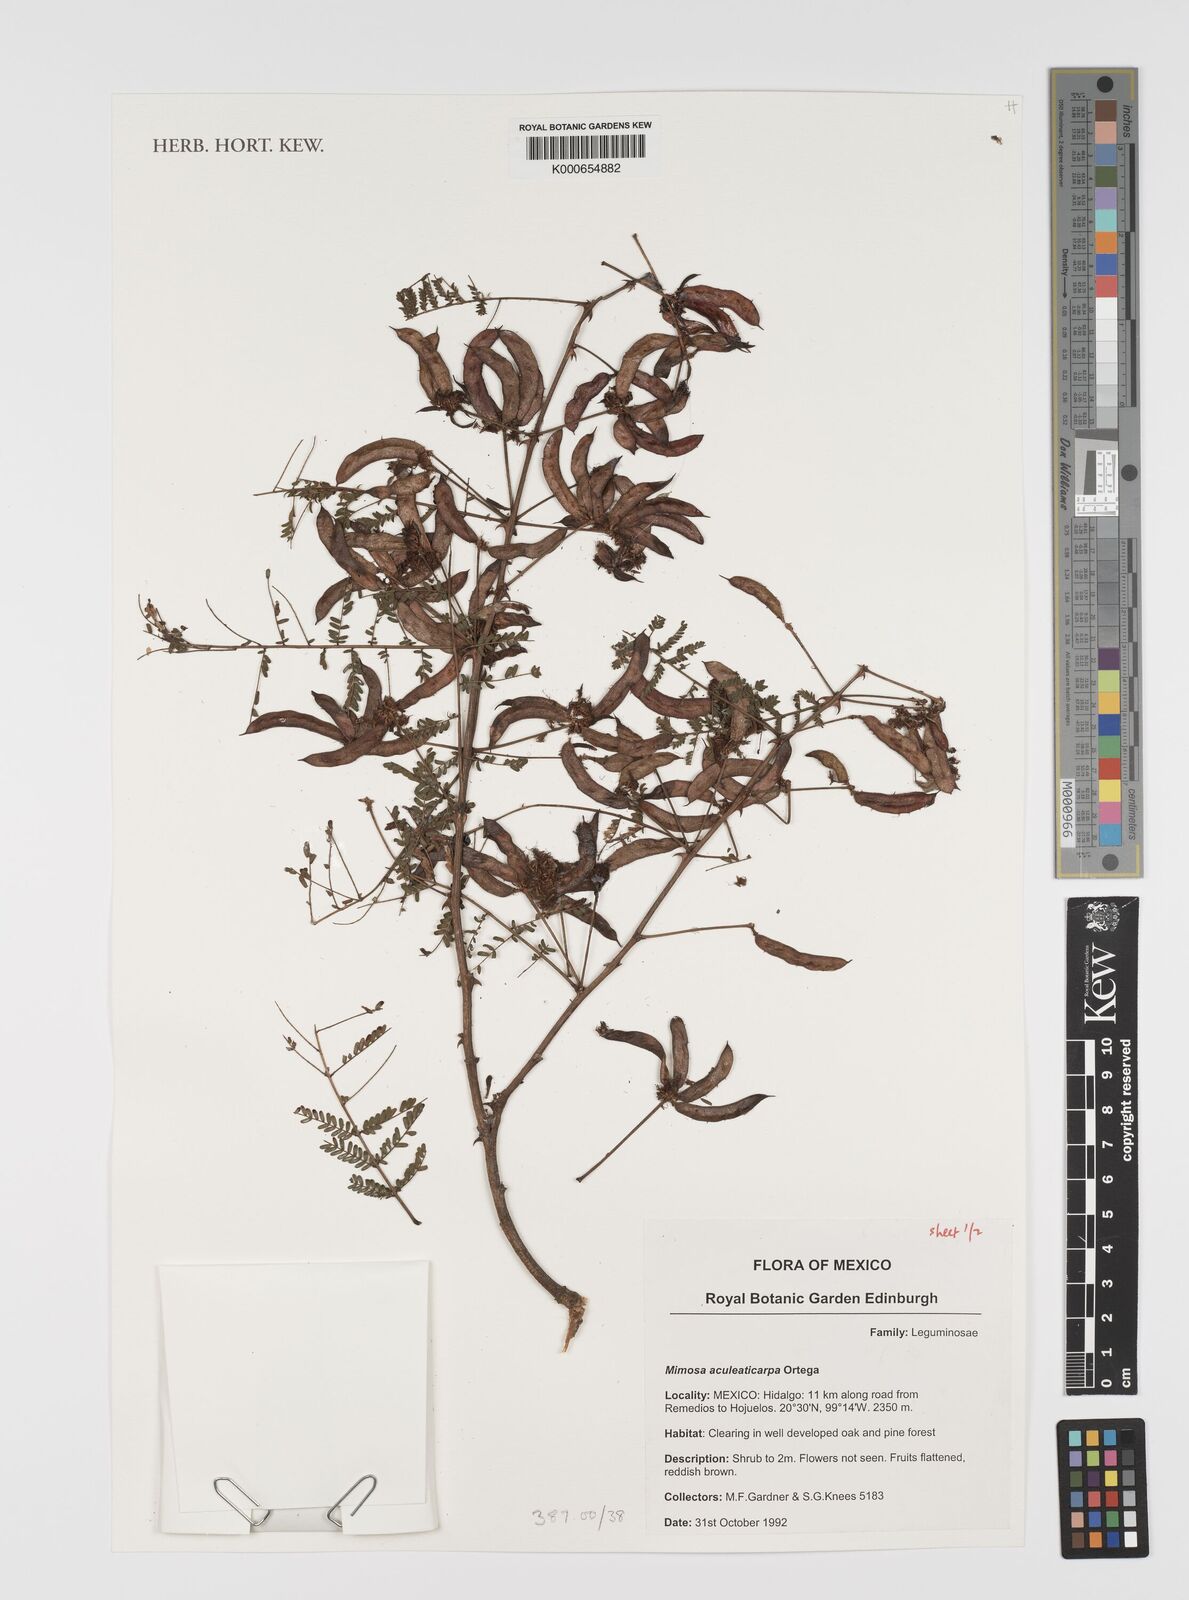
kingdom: Plantae
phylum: Tracheophyta
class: Magnoliopsida
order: Fabales
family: Fabaceae
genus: Mimosa
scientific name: Mimosa aculeaticarpa
